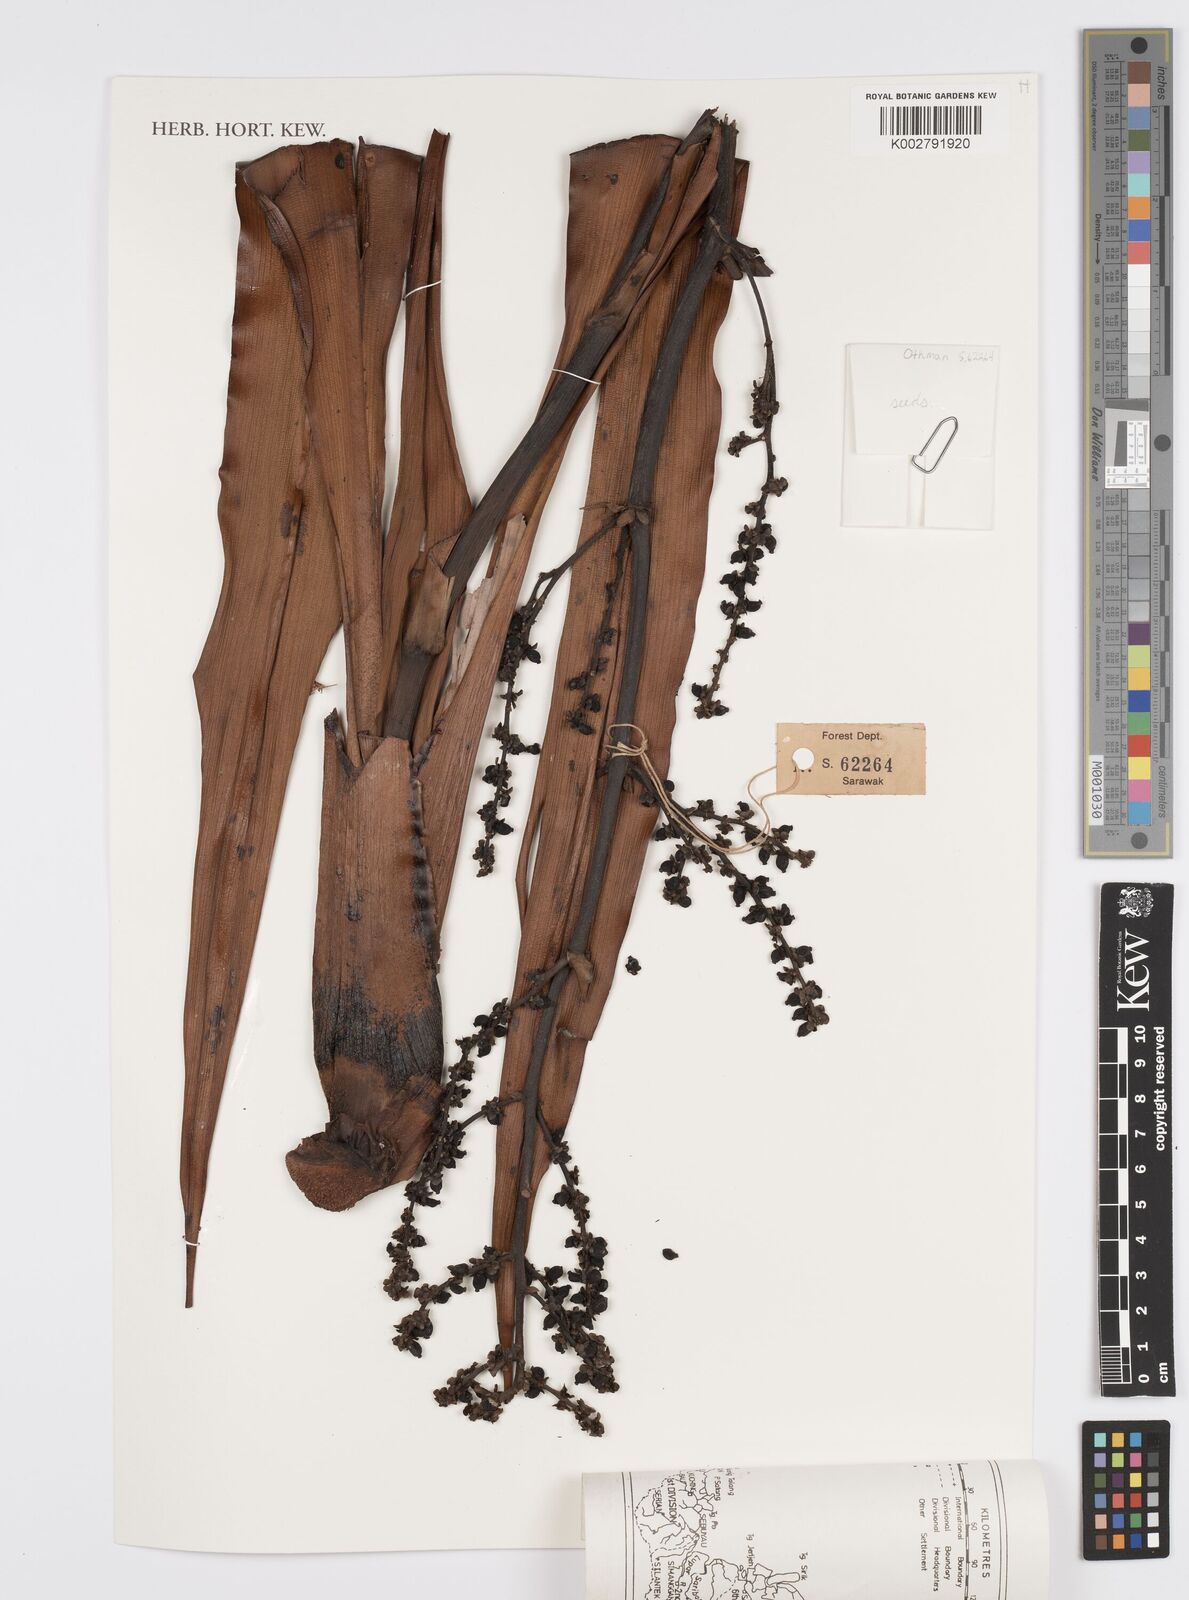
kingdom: Plantae
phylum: Tracheophyta
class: Liliopsida
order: Commelinales
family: Hanguanaceae
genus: Hanguana
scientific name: Hanguana malayana
